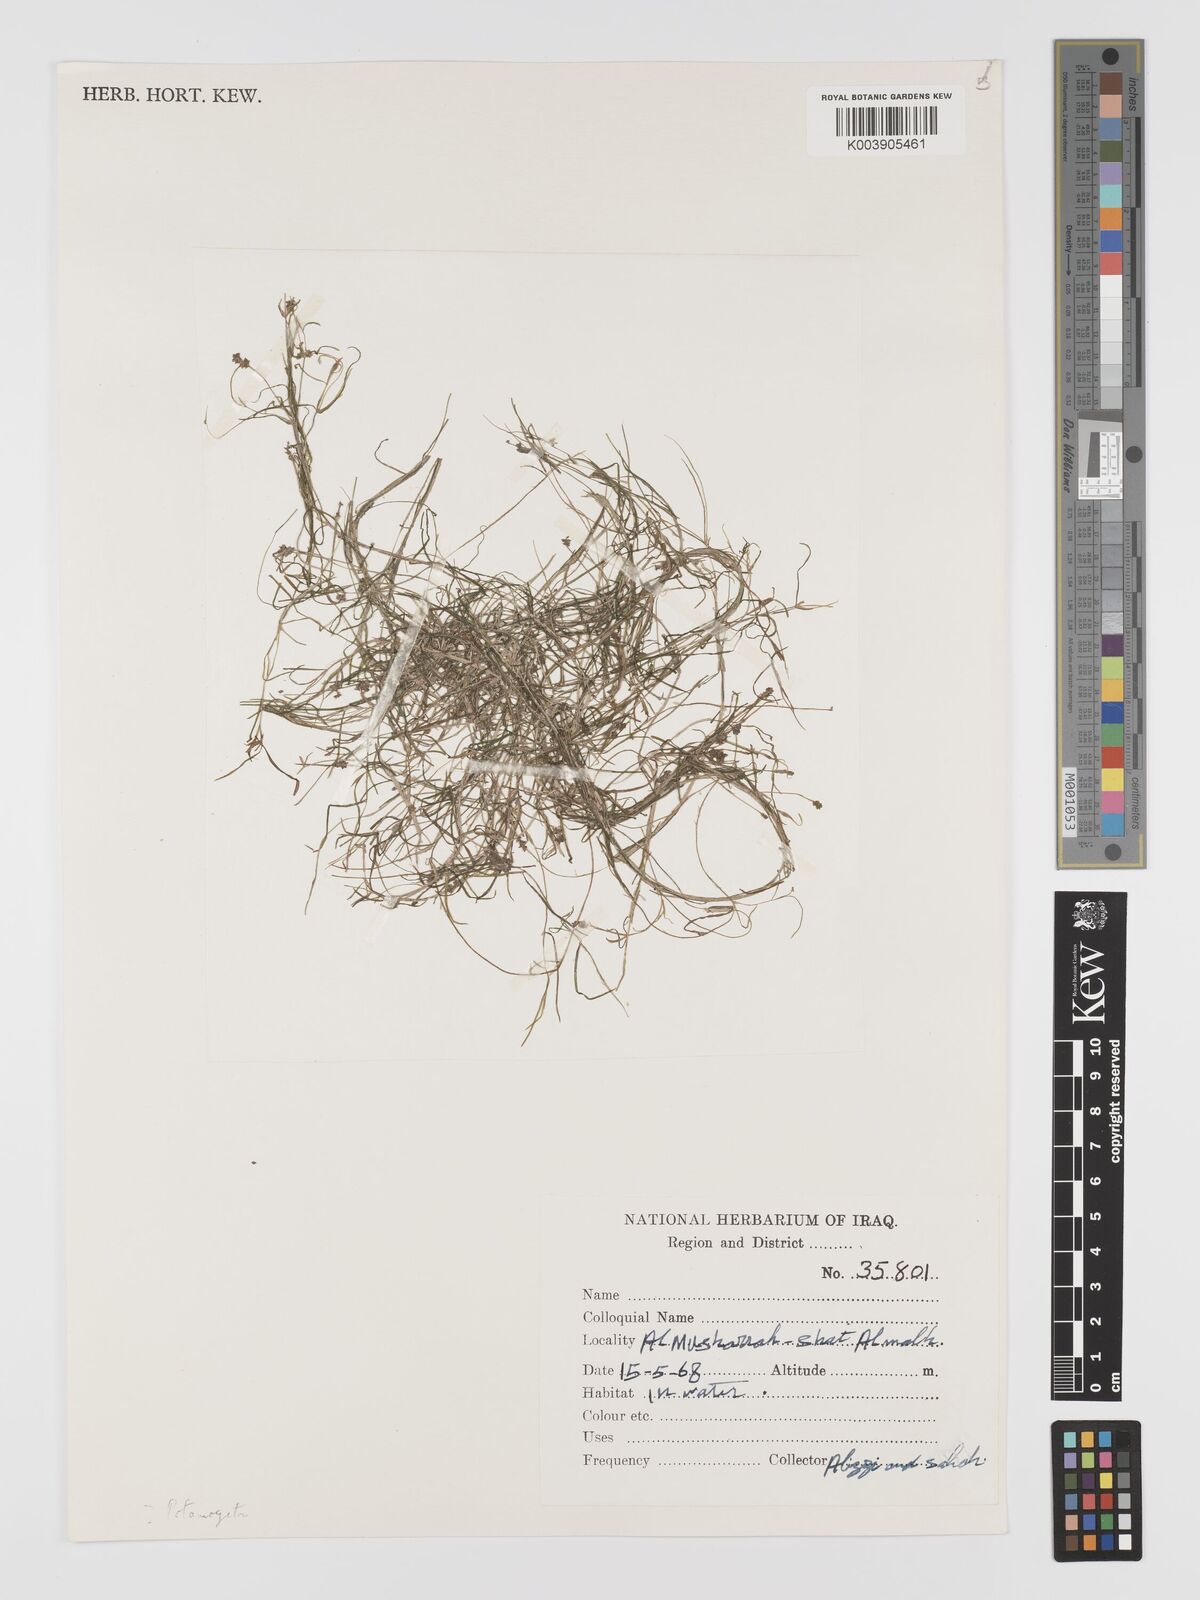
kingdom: Plantae
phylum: Tracheophyta
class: Liliopsida
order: Alismatales
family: Potamogetonaceae
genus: Potamogeton
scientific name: Potamogeton
